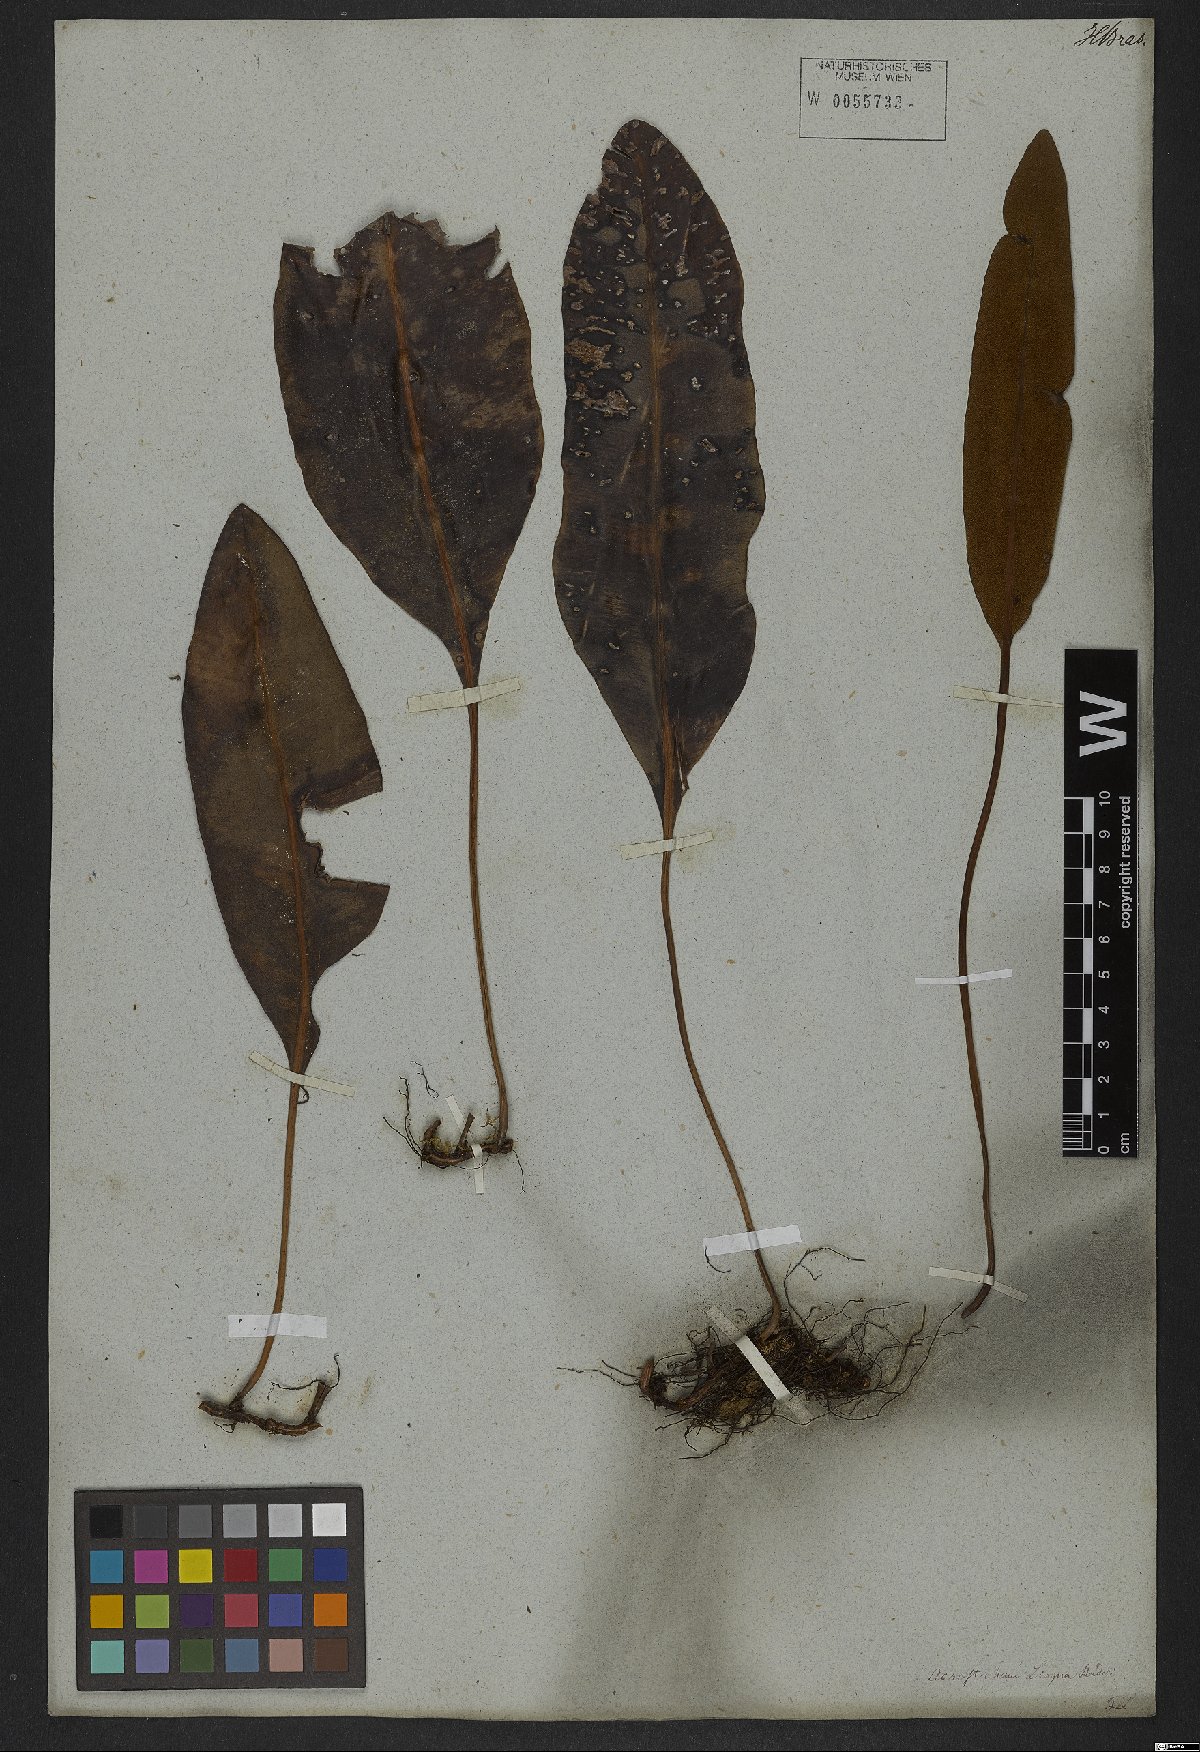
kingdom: Plantae
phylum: Tracheophyta
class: Polypodiopsida
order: Polypodiales
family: Dryopteridaceae
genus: Elaphoglossum
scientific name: Elaphoglossum brachyneuron
